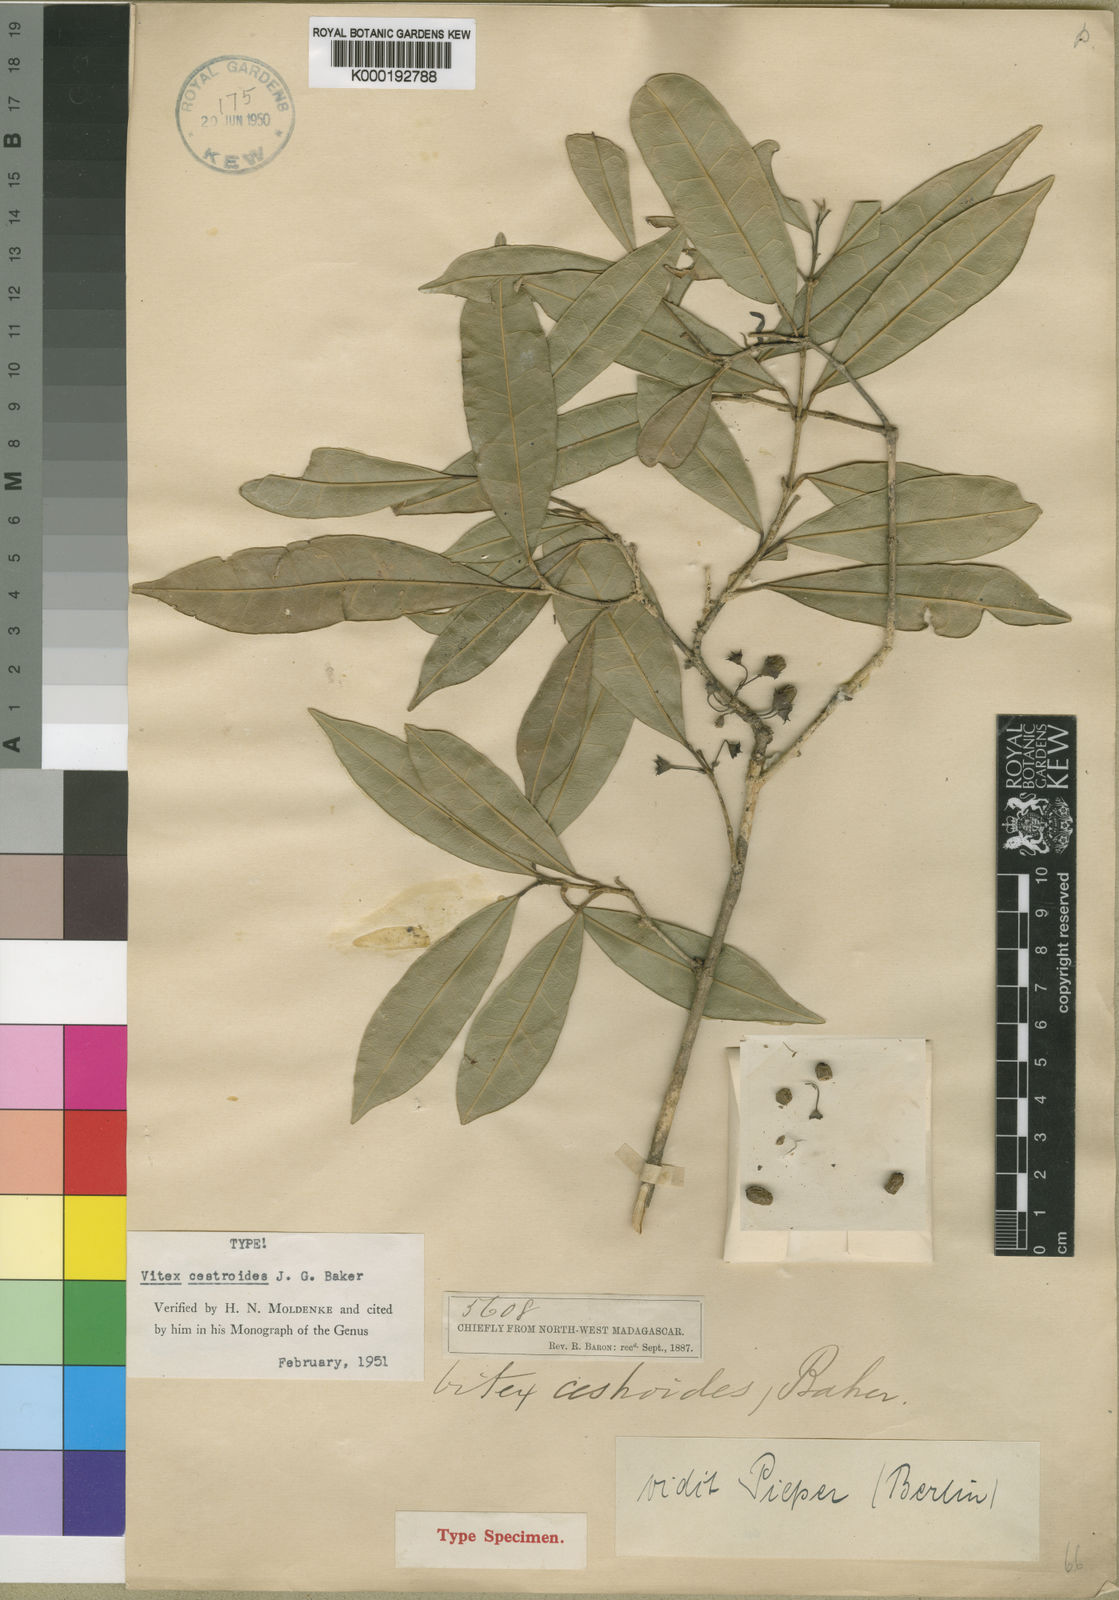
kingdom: Plantae
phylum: Tracheophyta
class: Magnoliopsida
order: Lamiales
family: Lamiaceae
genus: Vitex
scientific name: Vitex cestroides
